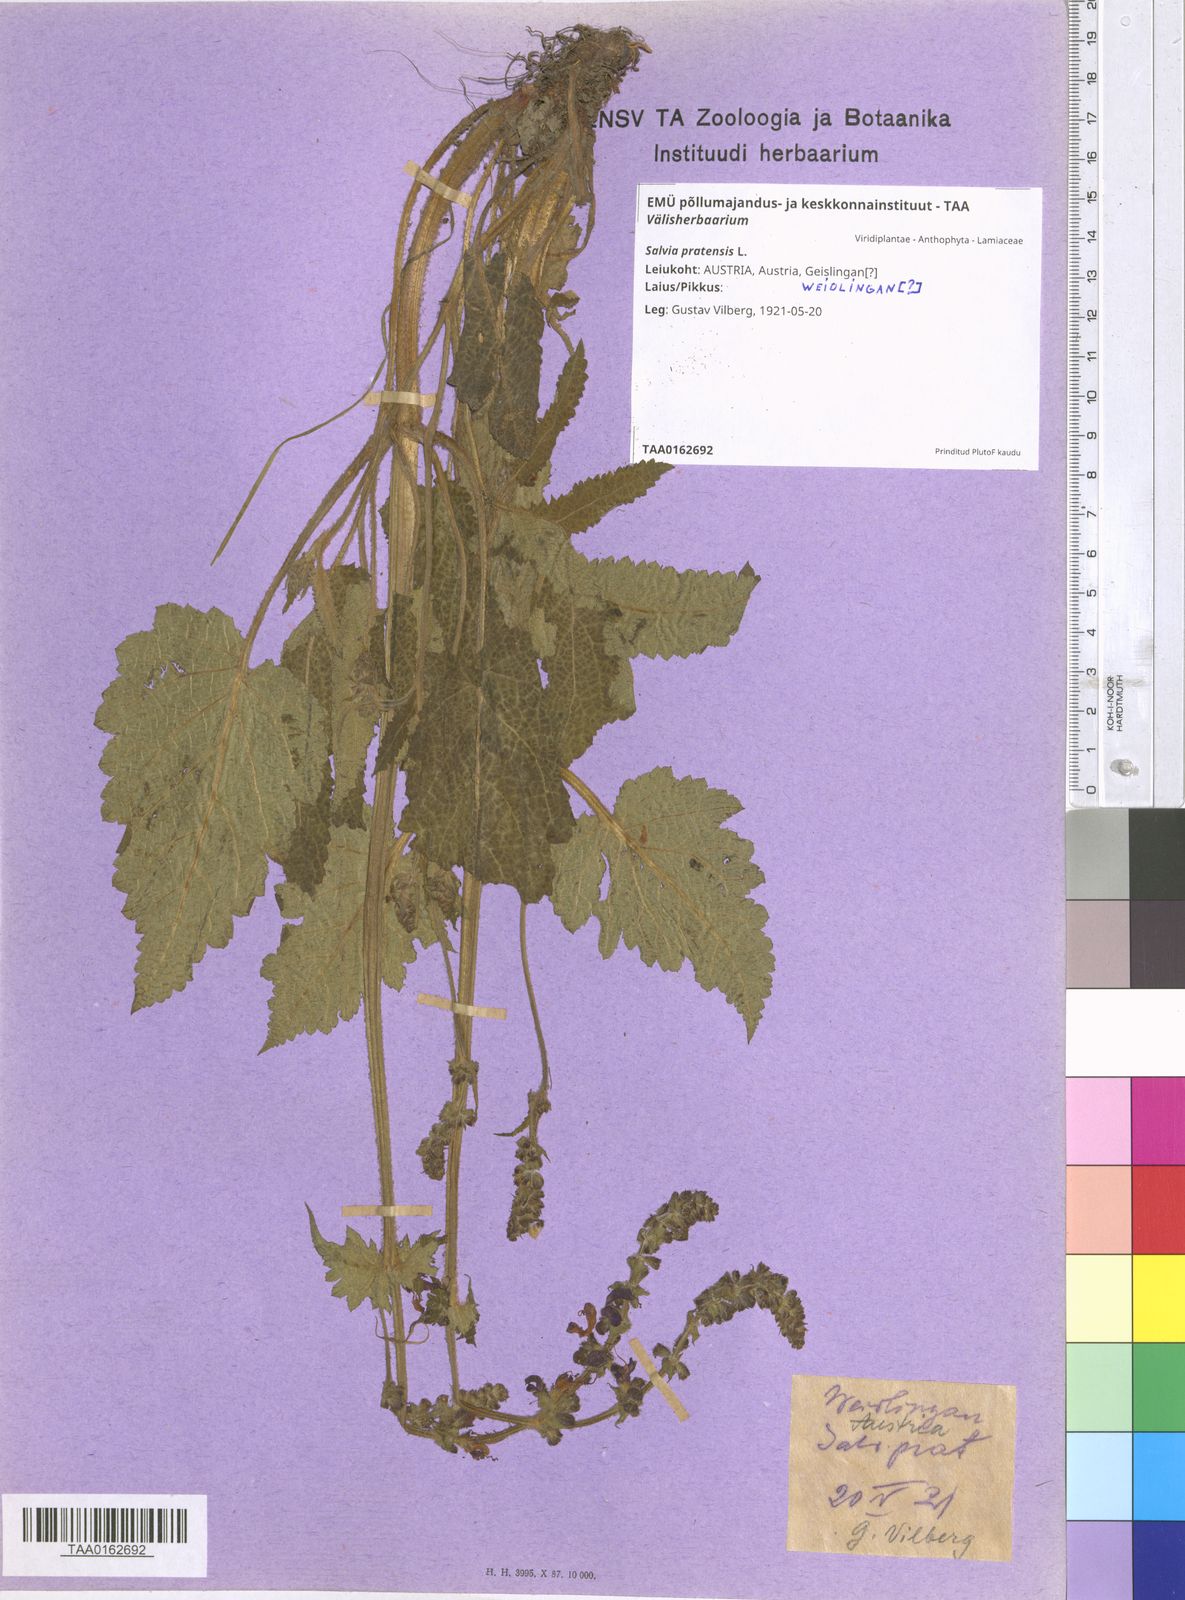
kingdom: Plantae
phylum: Tracheophyta
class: Magnoliopsida
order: Lamiales
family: Lamiaceae
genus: Salvia
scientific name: Salvia pratensis
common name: Meadow sage
